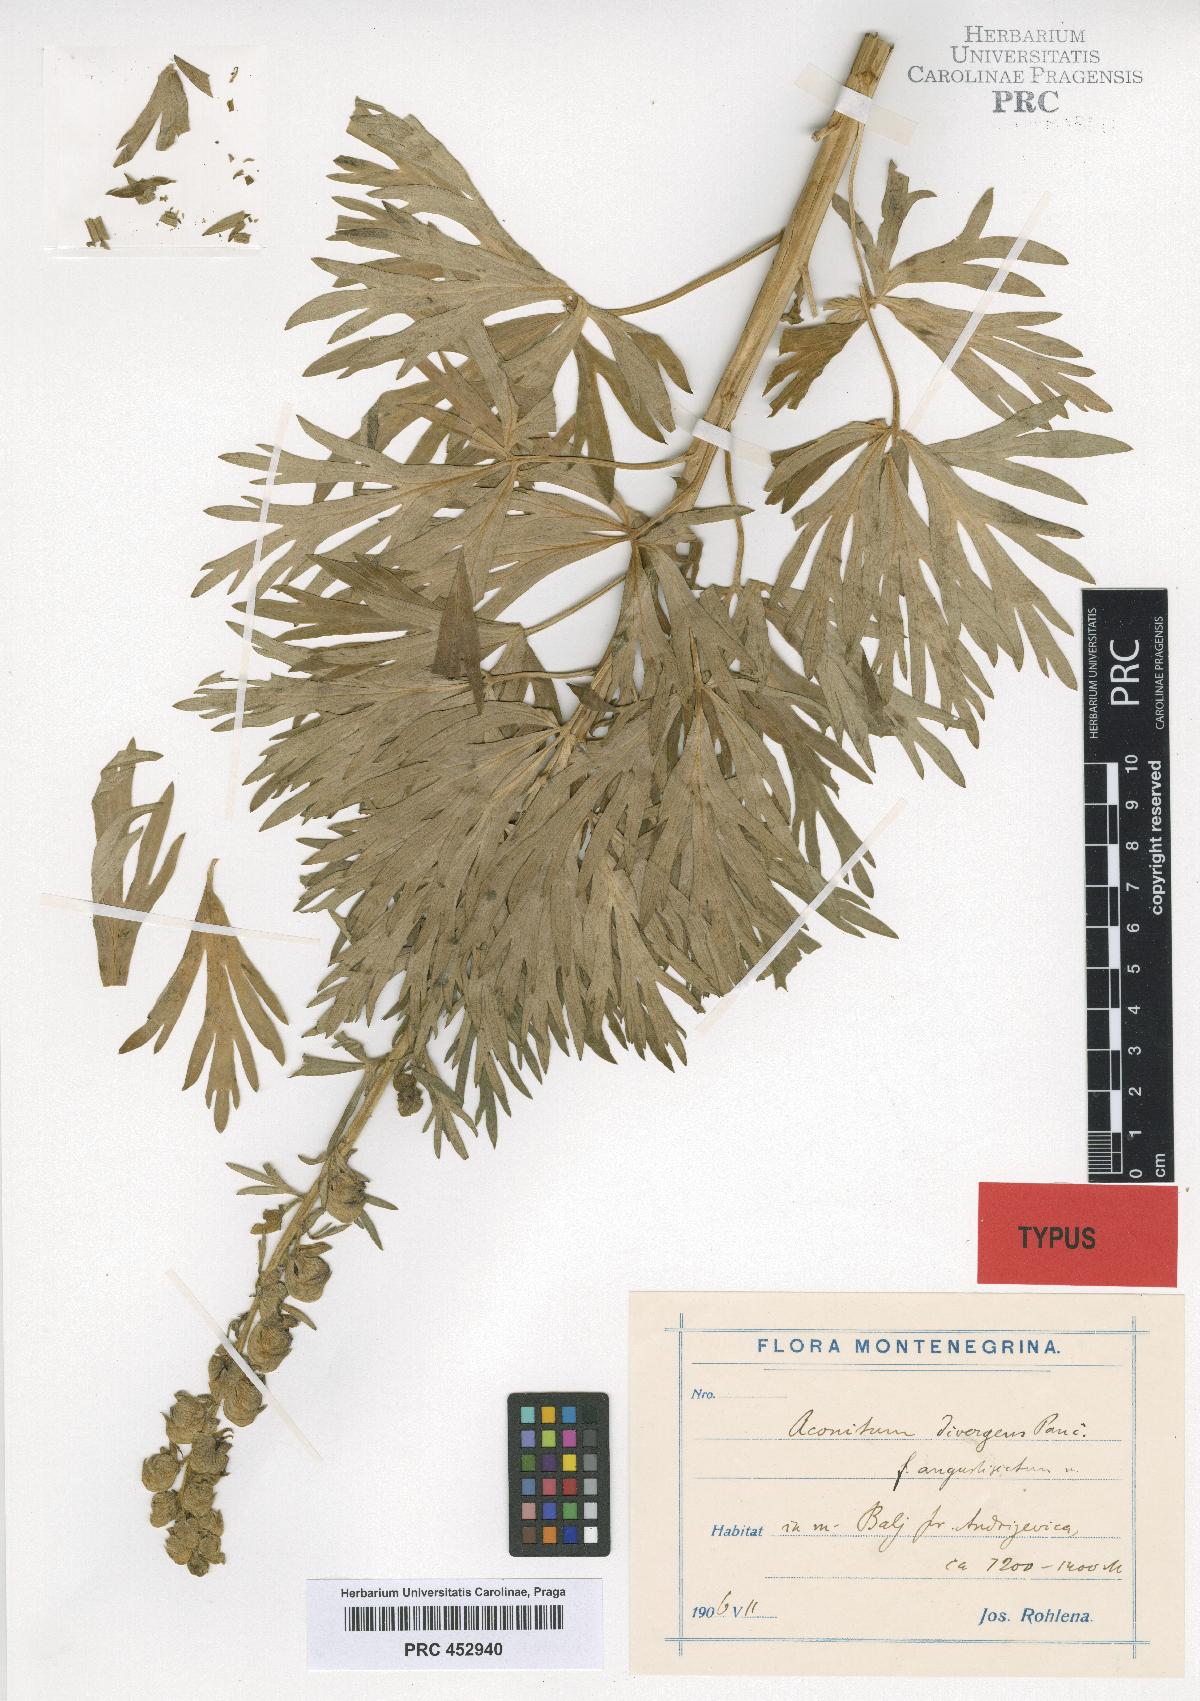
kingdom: Plantae
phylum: Tracheophyta
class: Magnoliopsida
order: Ranunculales
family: Ranunculaceae
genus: Aconitum
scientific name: Aconitum pentheri
